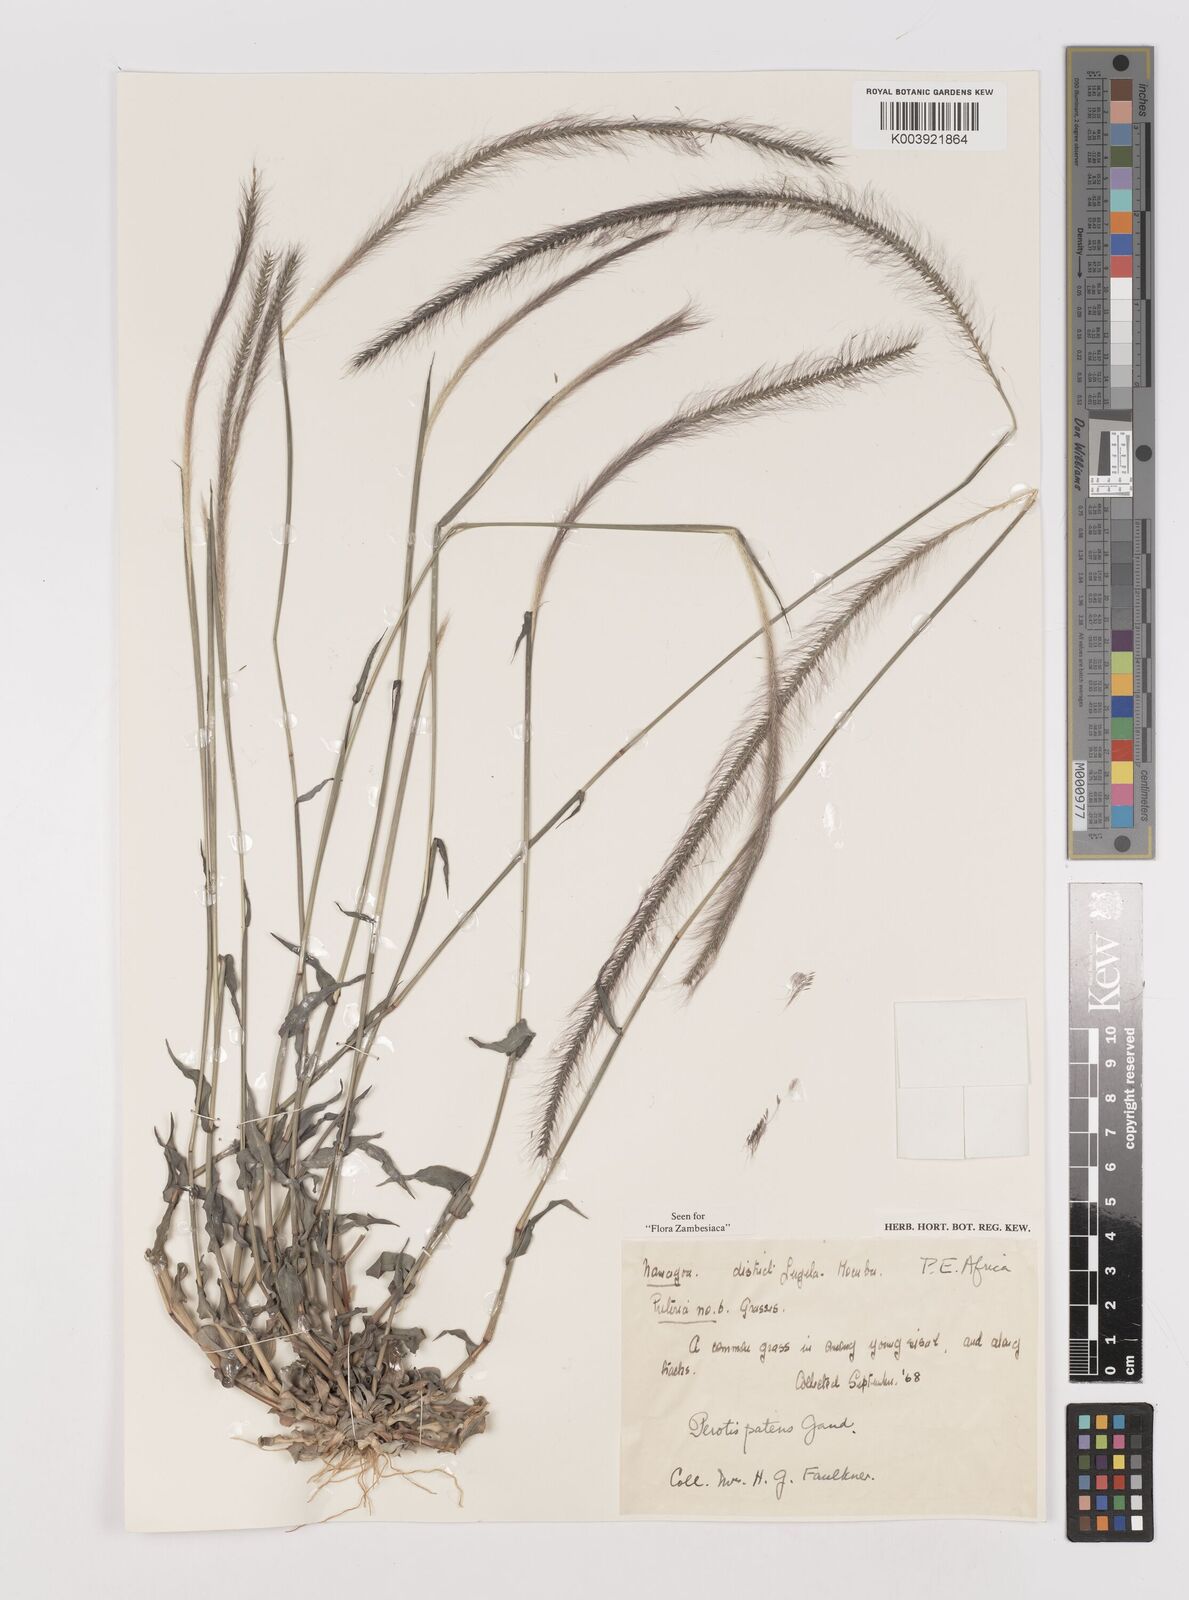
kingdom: Plantae
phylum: Tracheophyta
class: Liliopsida
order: Poales
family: Poaceae
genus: Perotis
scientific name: Perotis patens
